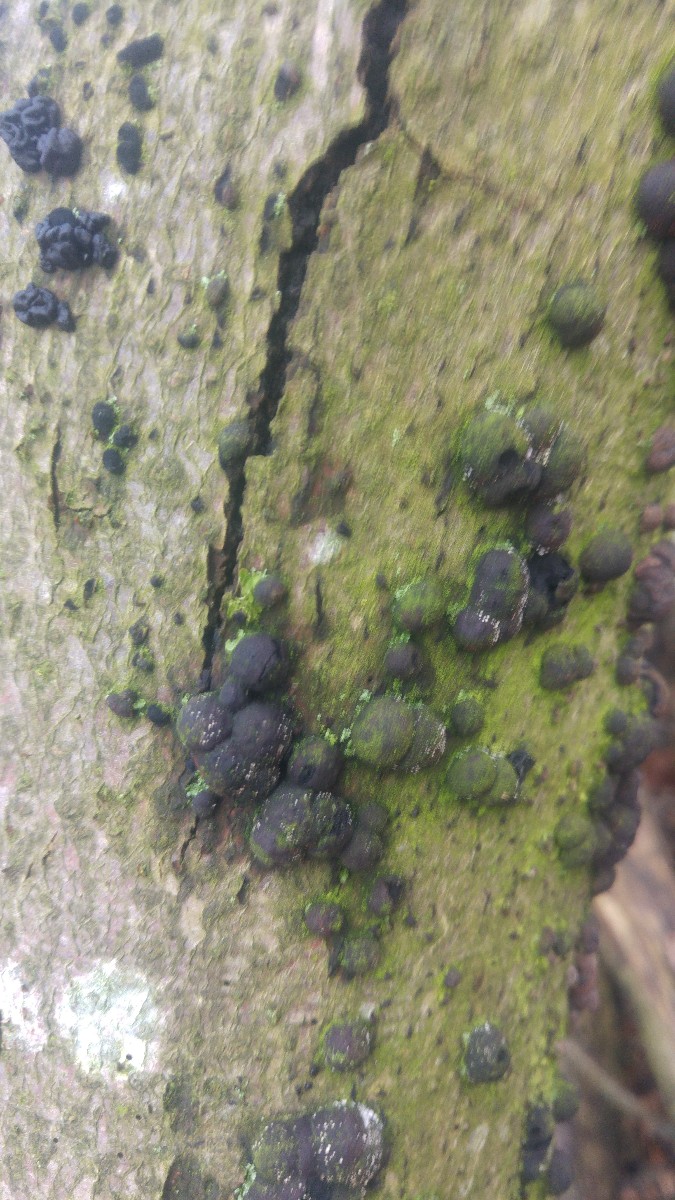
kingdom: Fungi
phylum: Ascomycota
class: Sordariomycetes
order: Xylariales
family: Hypoxylaceae
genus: Hypoxylon
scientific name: Hypoxylon fragiforme
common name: kuljordbær
